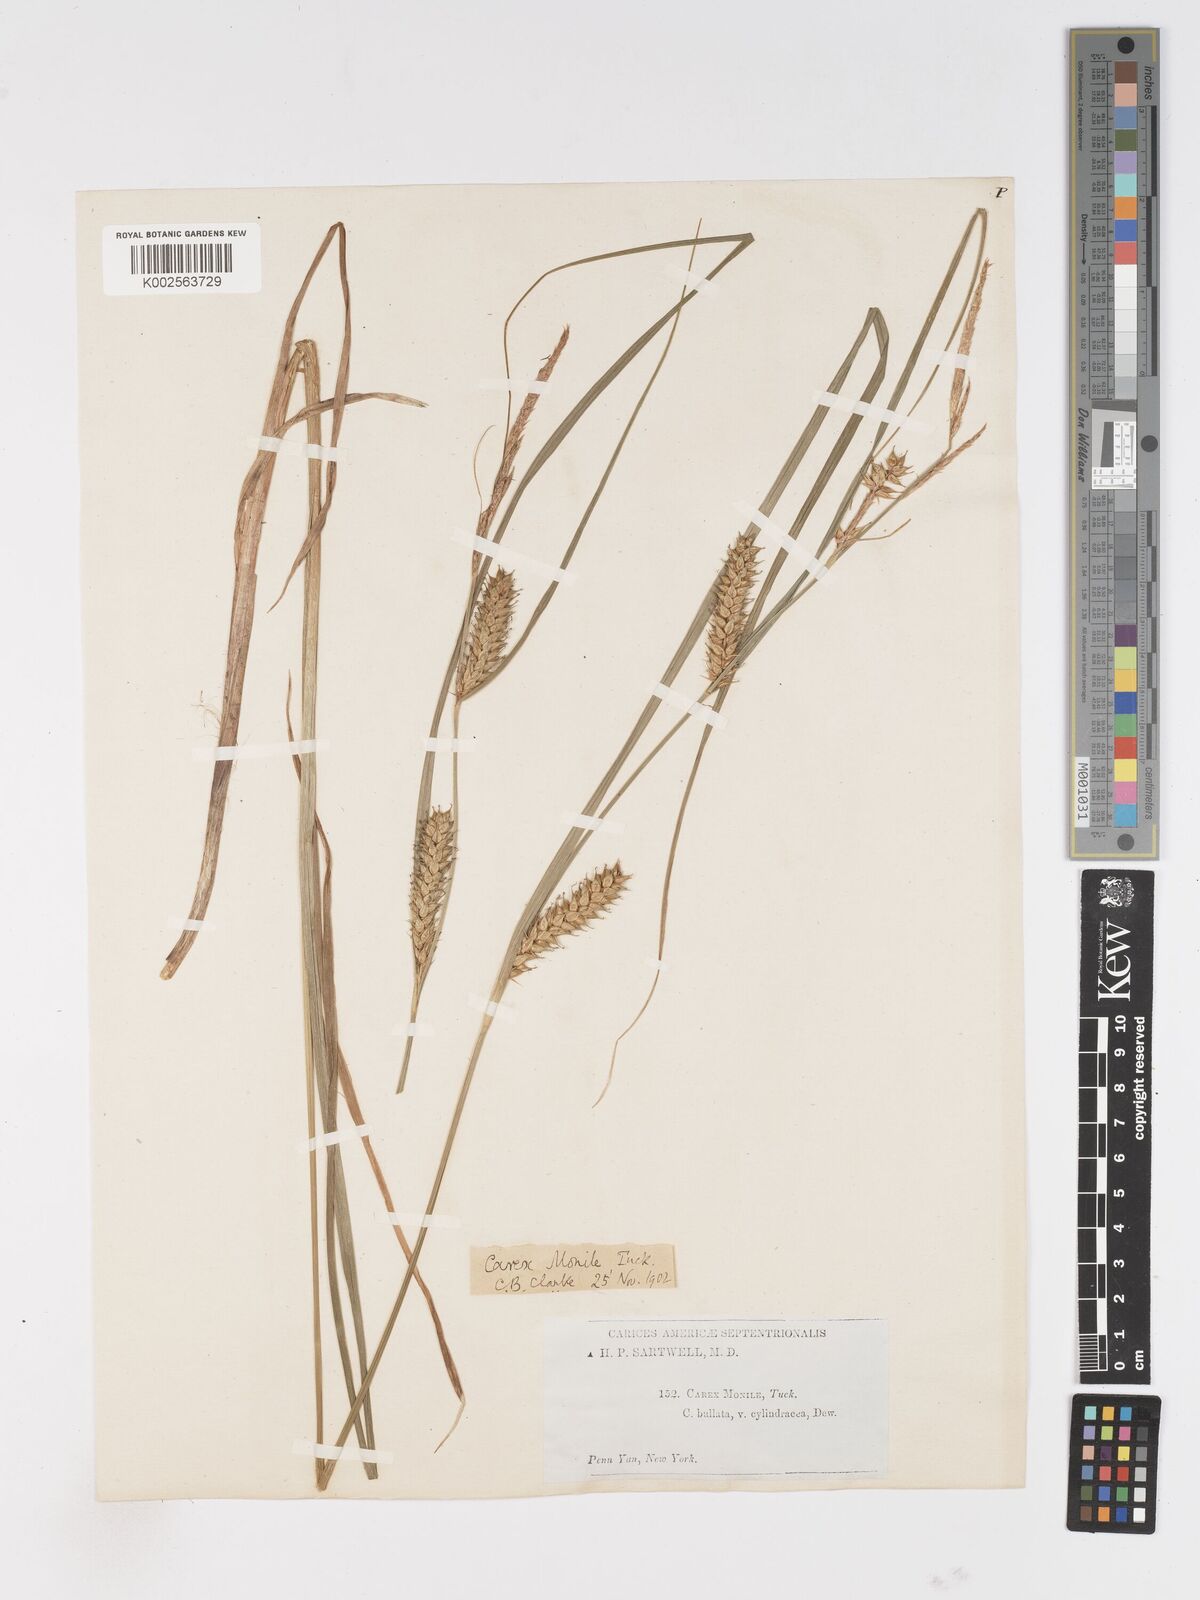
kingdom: Plantae
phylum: Tracheophyta
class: Liliopsida
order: Poales
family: Cyperaceae
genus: Carex
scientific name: Carex vesicaria
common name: Bladder-sedge
